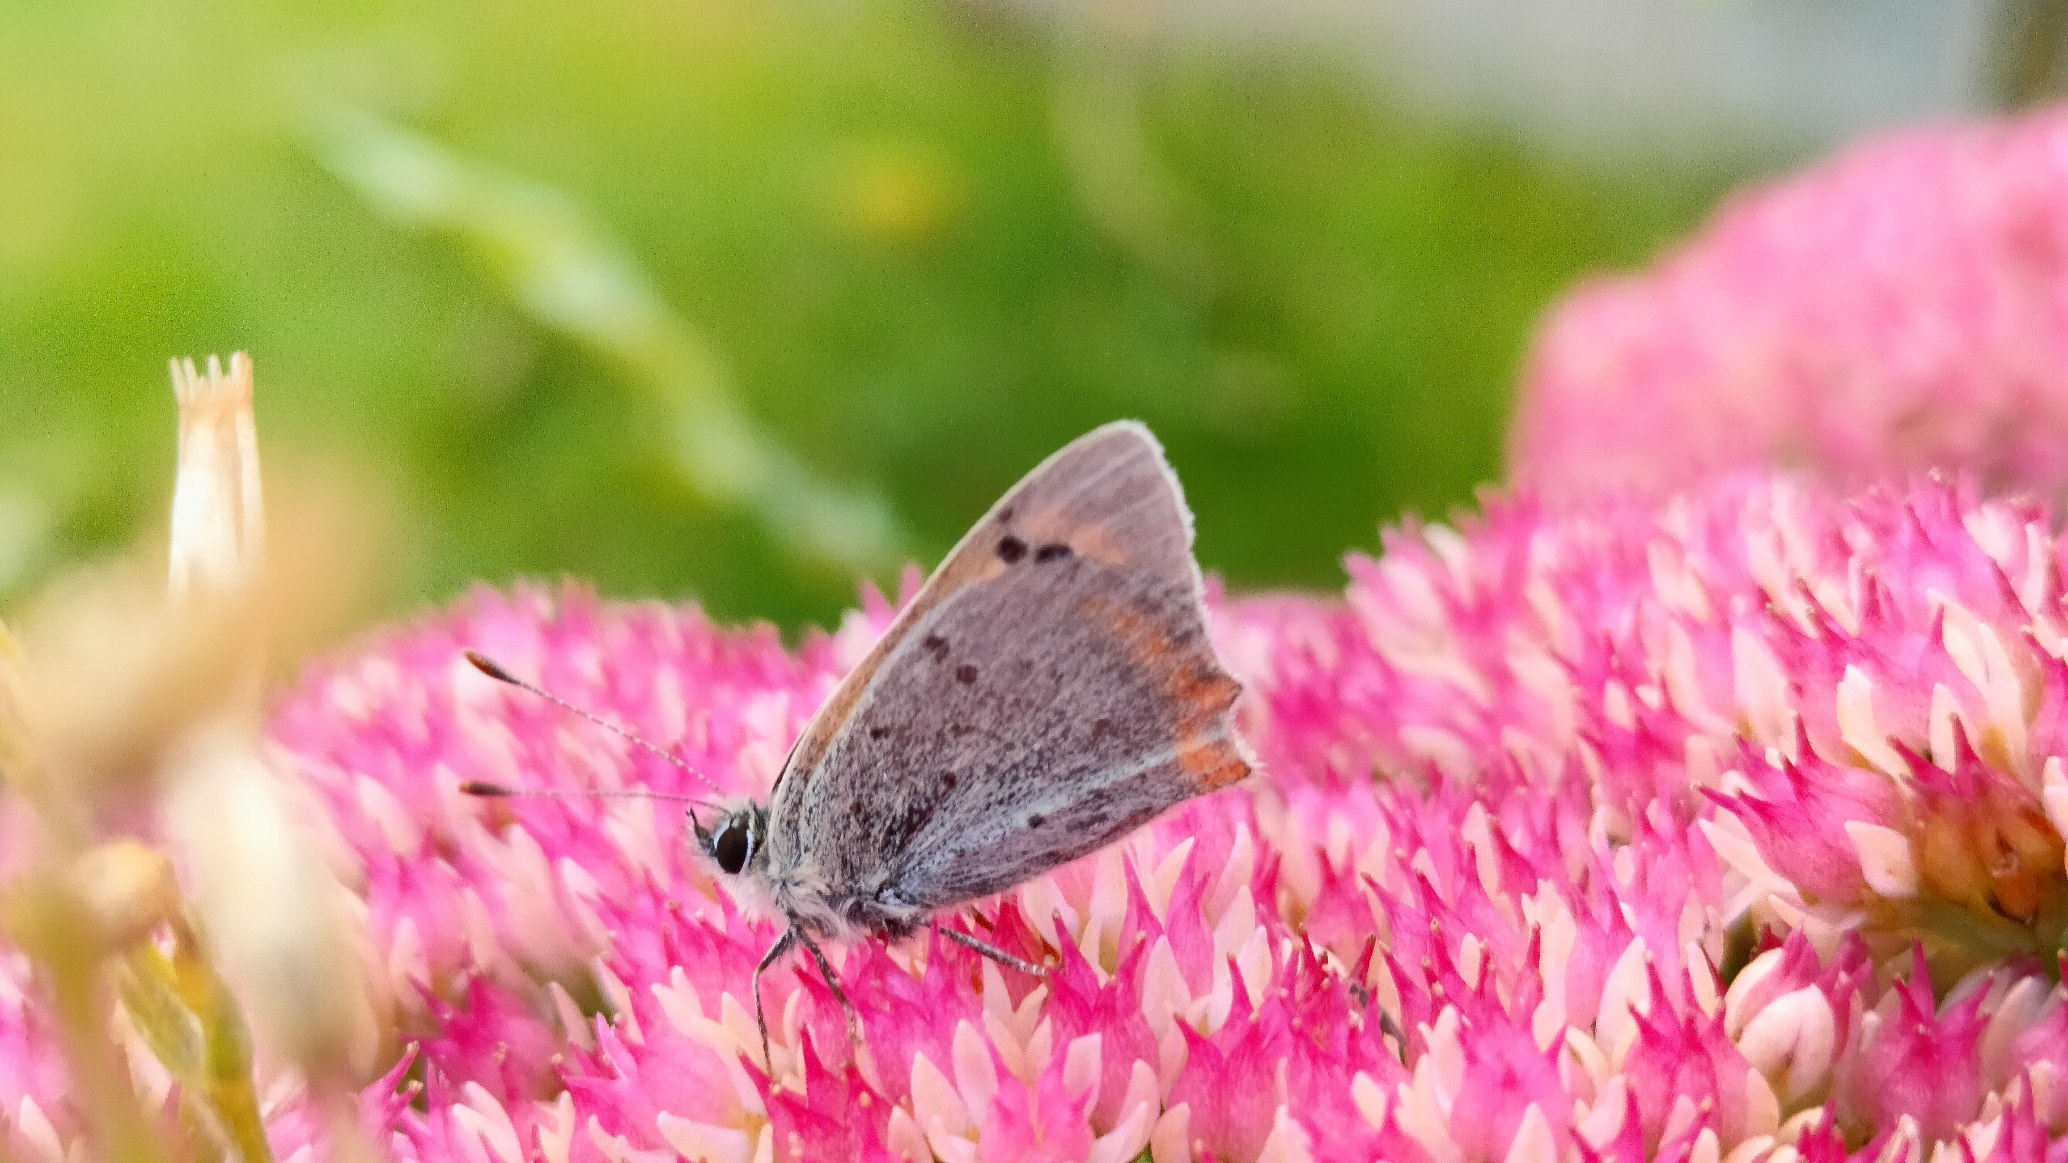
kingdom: Animalia
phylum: Arthropoda
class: Insecta
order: Lepidoptera
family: Lycaenidae
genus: Lycaena
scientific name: Lycaena phlaeas
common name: Lille ildfugl
